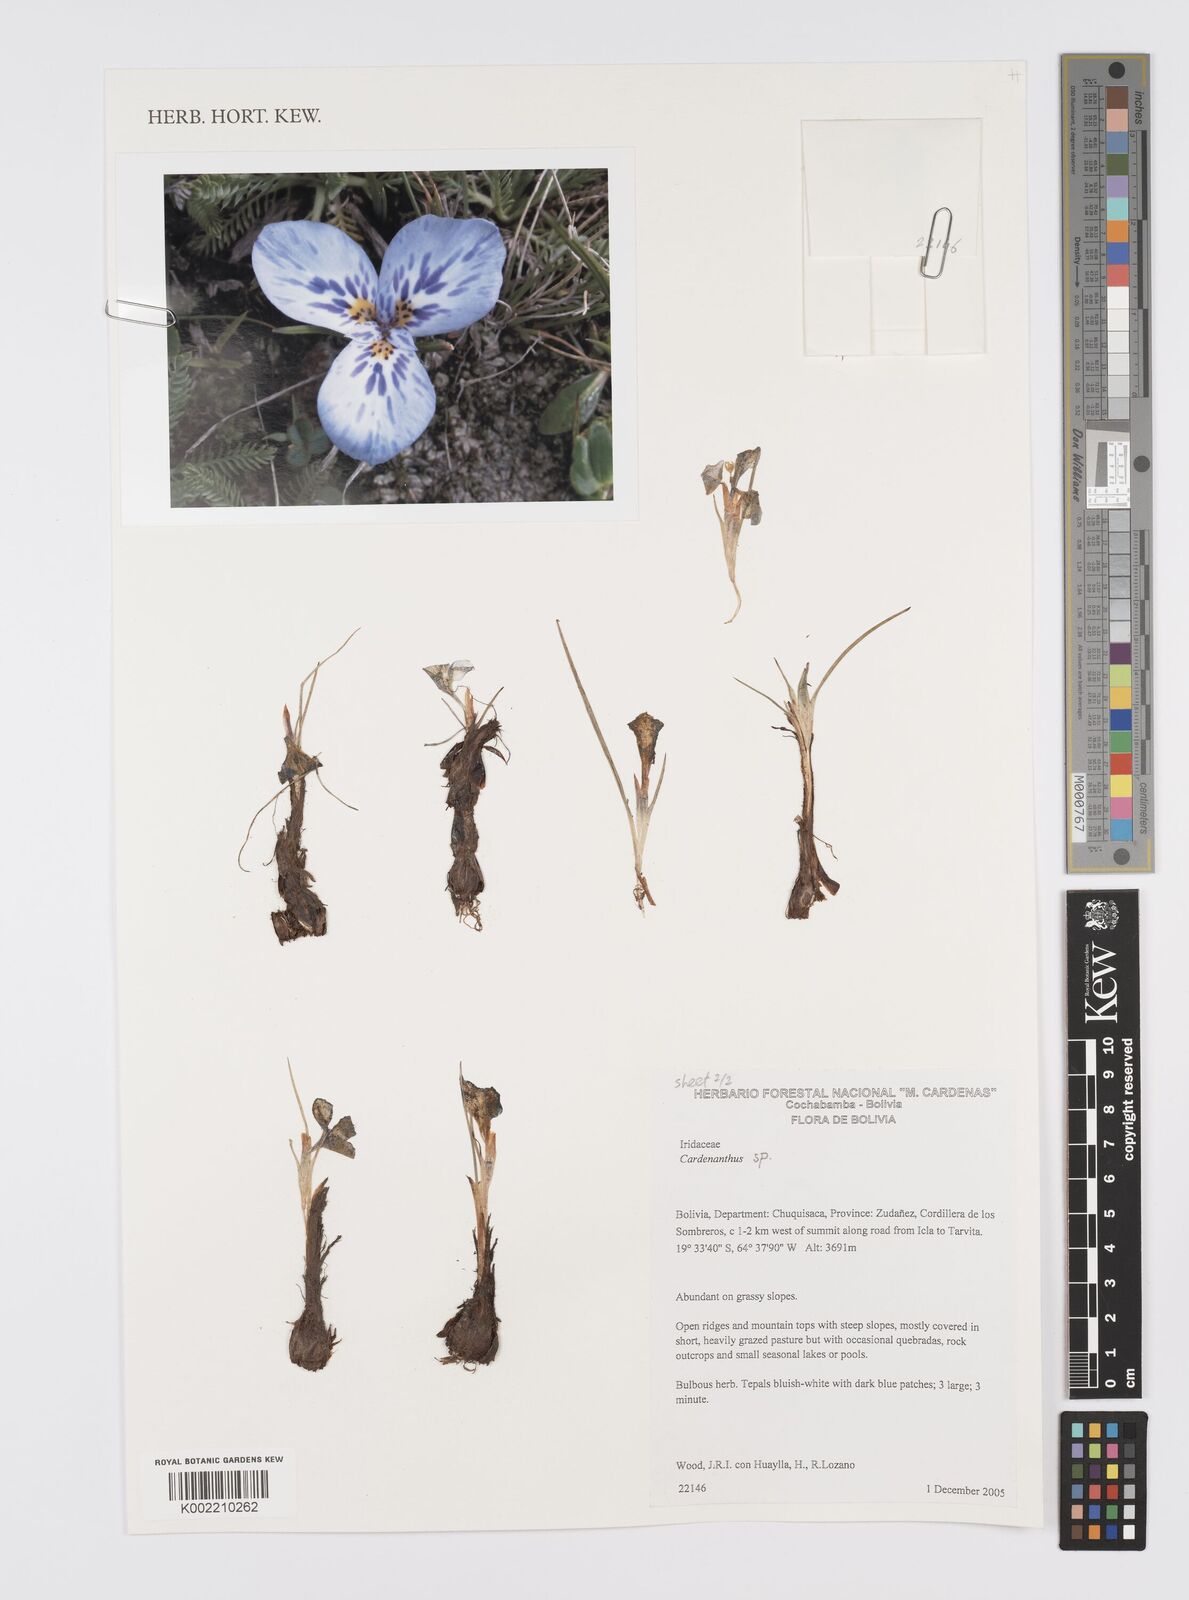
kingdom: Plantae
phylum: Tracheophyta
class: Liliopsida
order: Asparagales
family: Iridaceae
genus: Mastigostyla
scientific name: Mastigostyla
